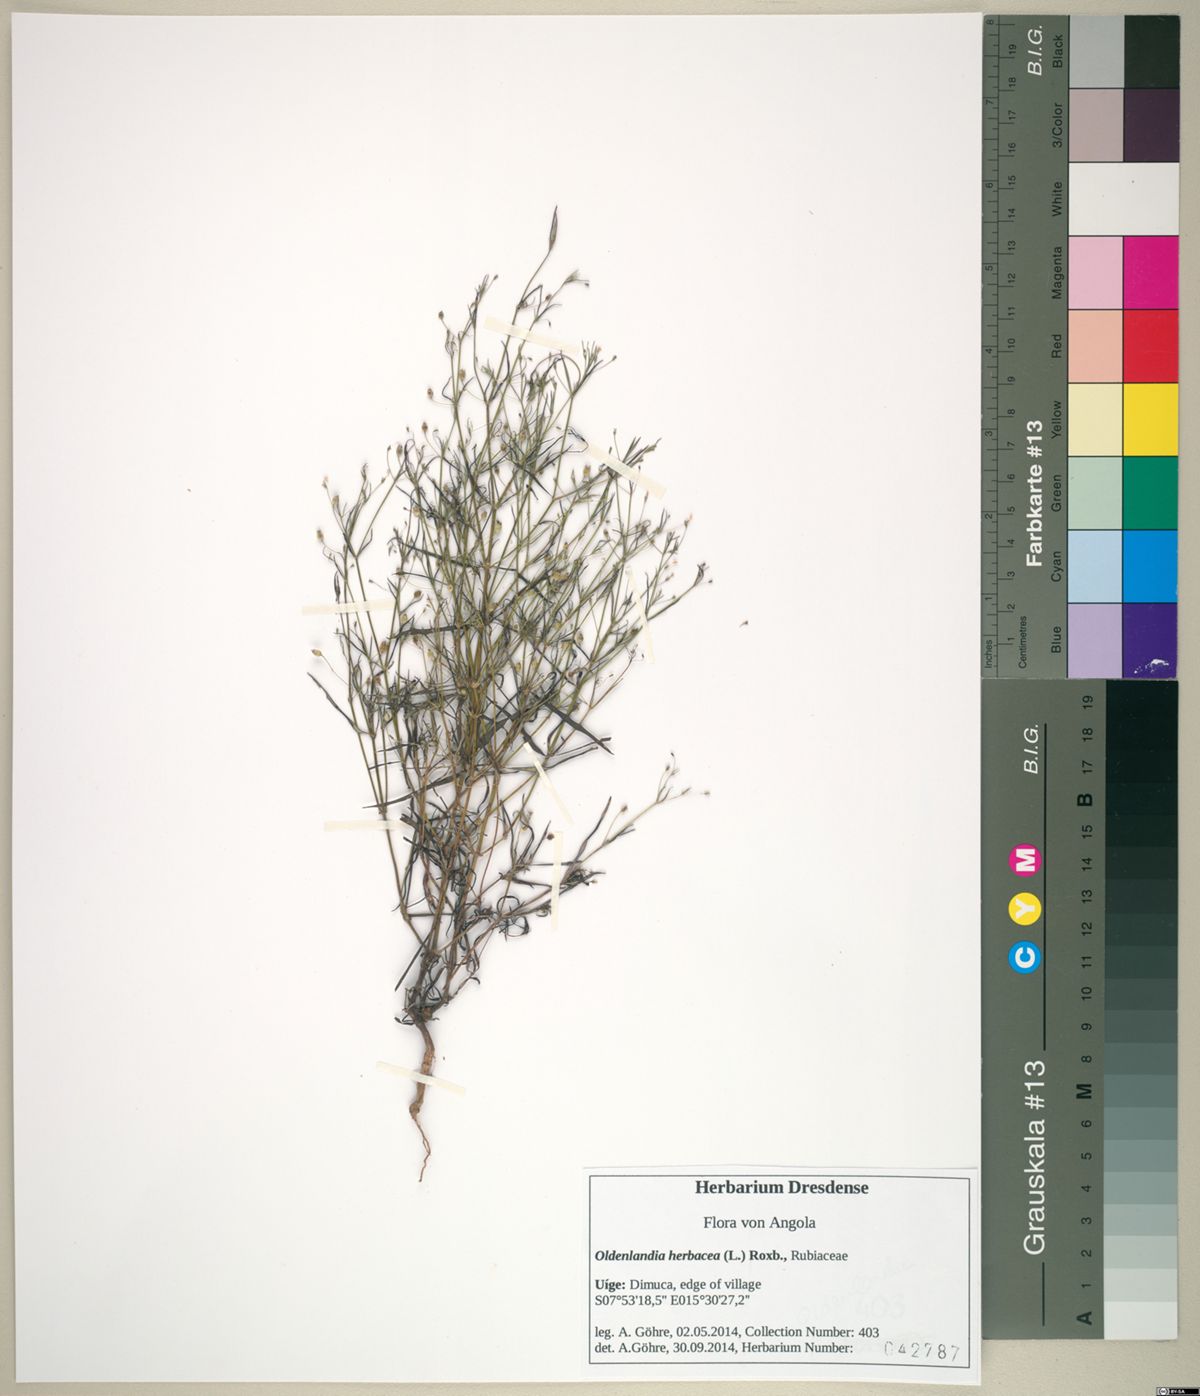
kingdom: Plantae
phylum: Tracheophyta
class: Magnoliopsida
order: Gentianales
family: Rubiaceae
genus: Oldenlandia
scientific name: Oldenlandia herbacea
